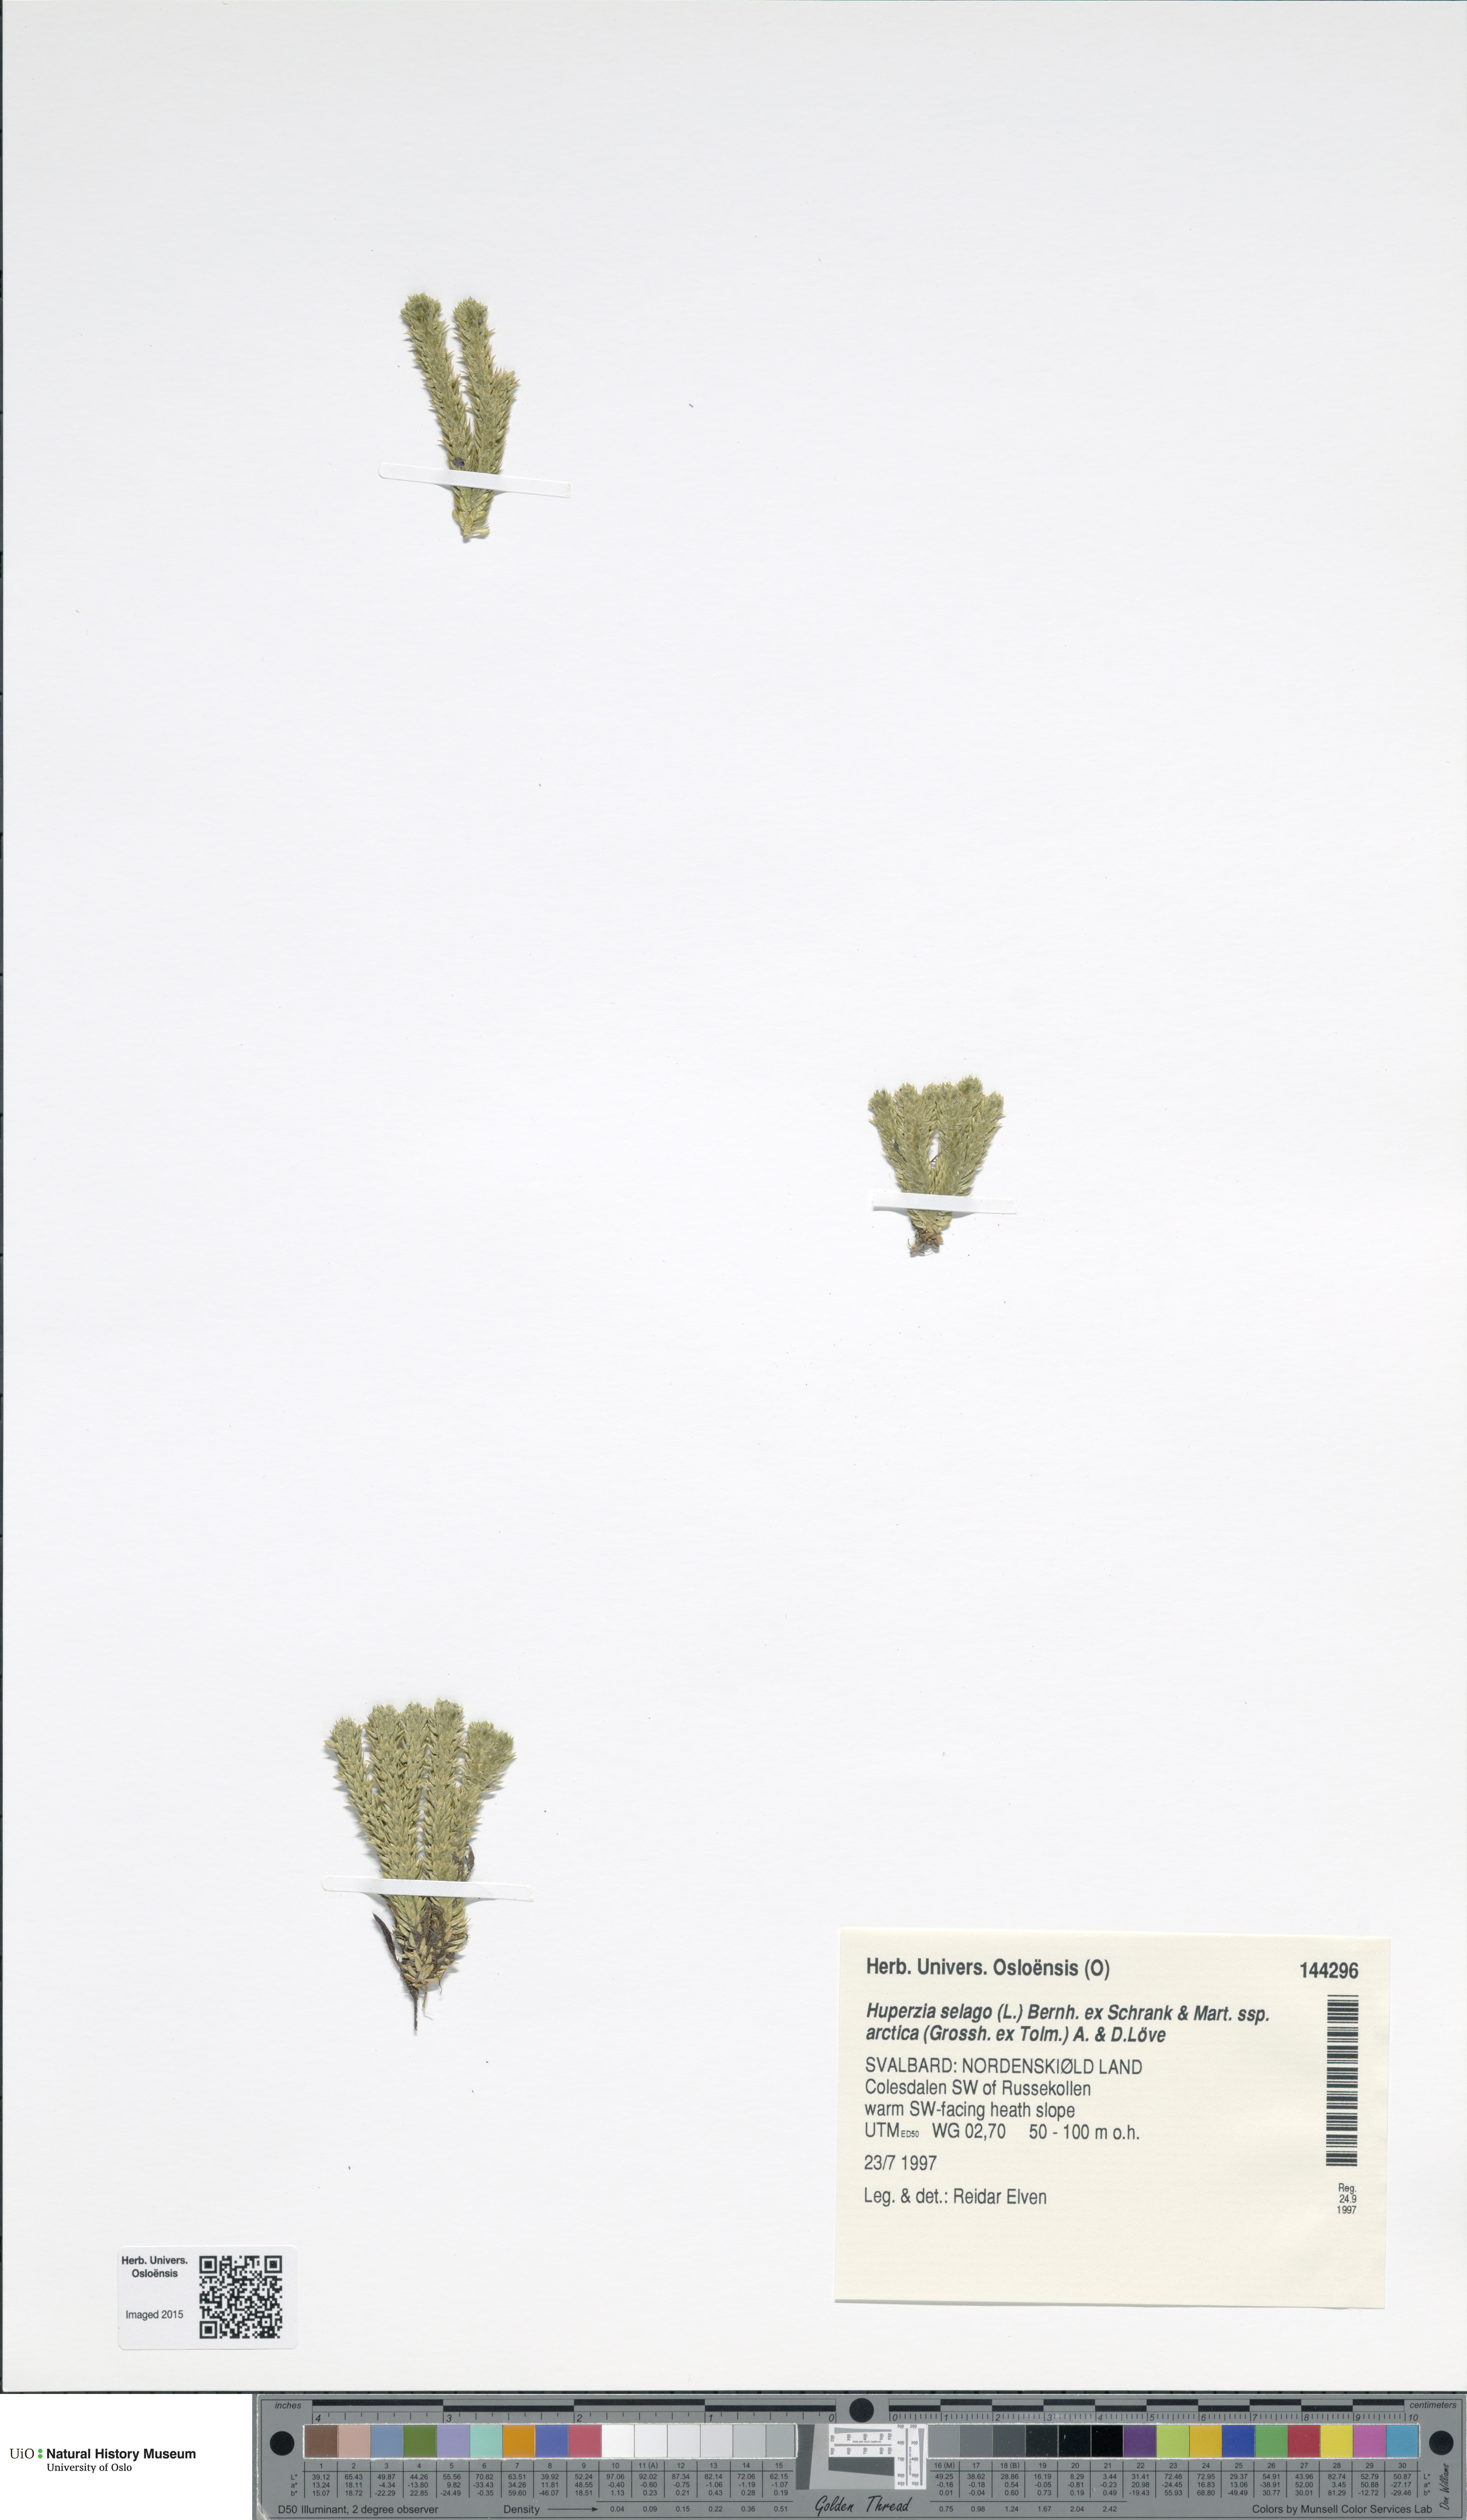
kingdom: Plantae
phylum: Tracheophyta
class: Lycopodiopsida
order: Lycopodiales
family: Lycopodiaceae
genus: Huperzia
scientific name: Huperzia selago
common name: Northern firmoss
